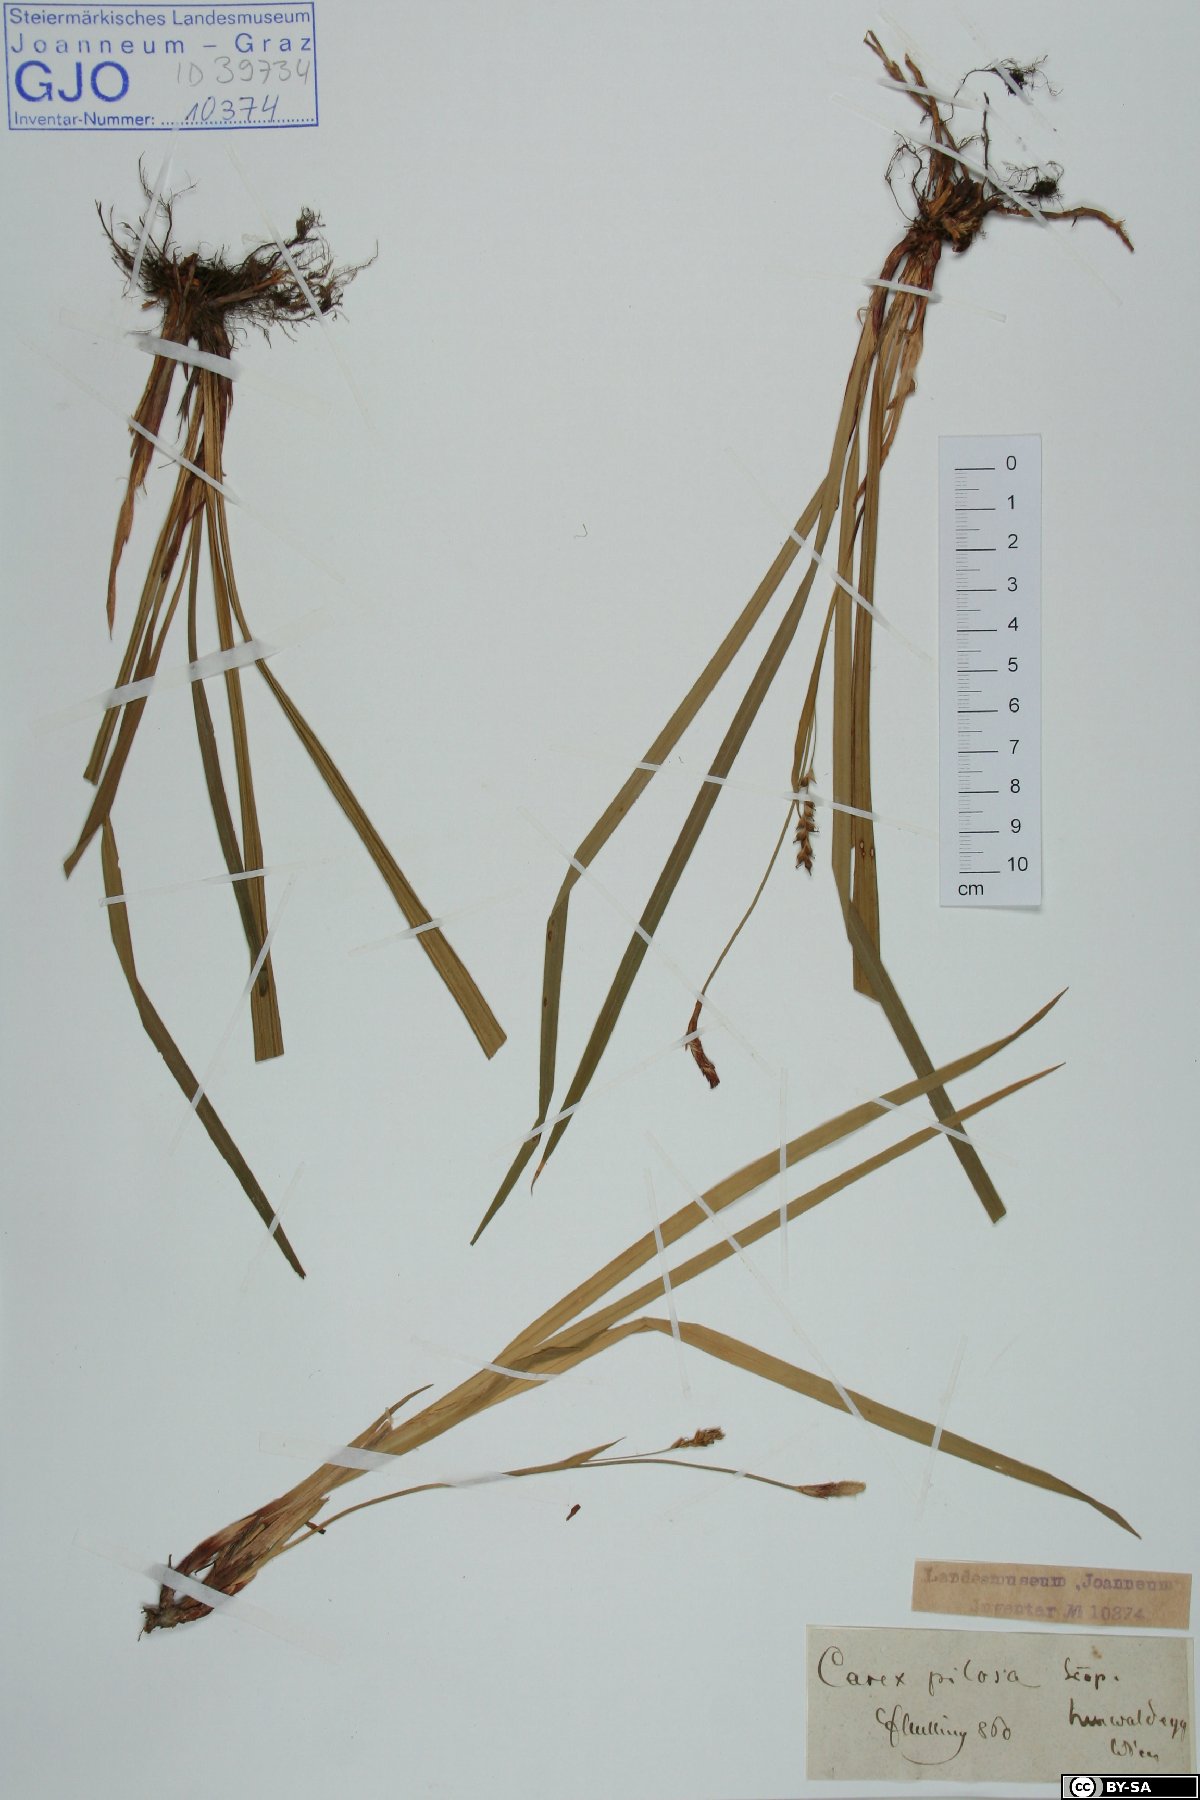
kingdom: Plantae
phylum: Tracheophyta
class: Liliopsida
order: Poales
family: Cyperaceae
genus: Carex
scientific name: Carex pilosa
